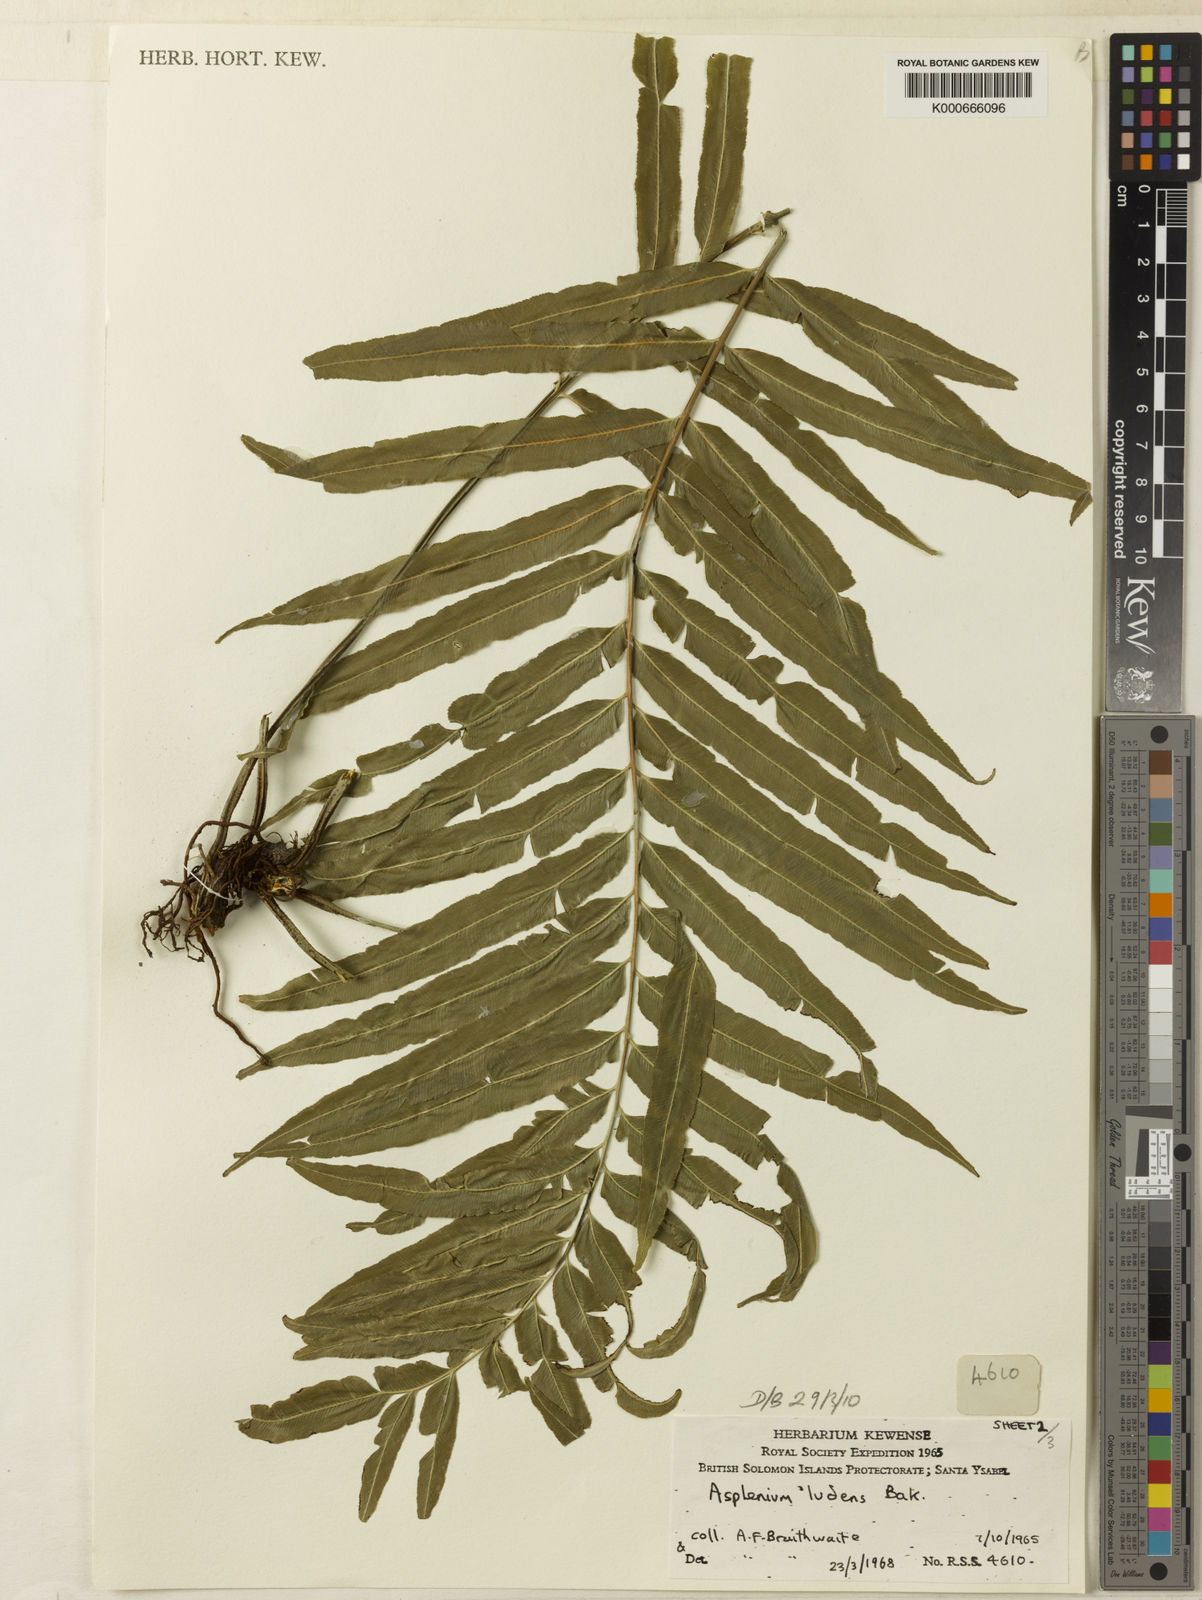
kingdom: Plantae
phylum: Tracheophyta
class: Polypodiopsida
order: Polypodiales
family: Aspleniaceae
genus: Asplenium
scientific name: Asplenium marattioides
